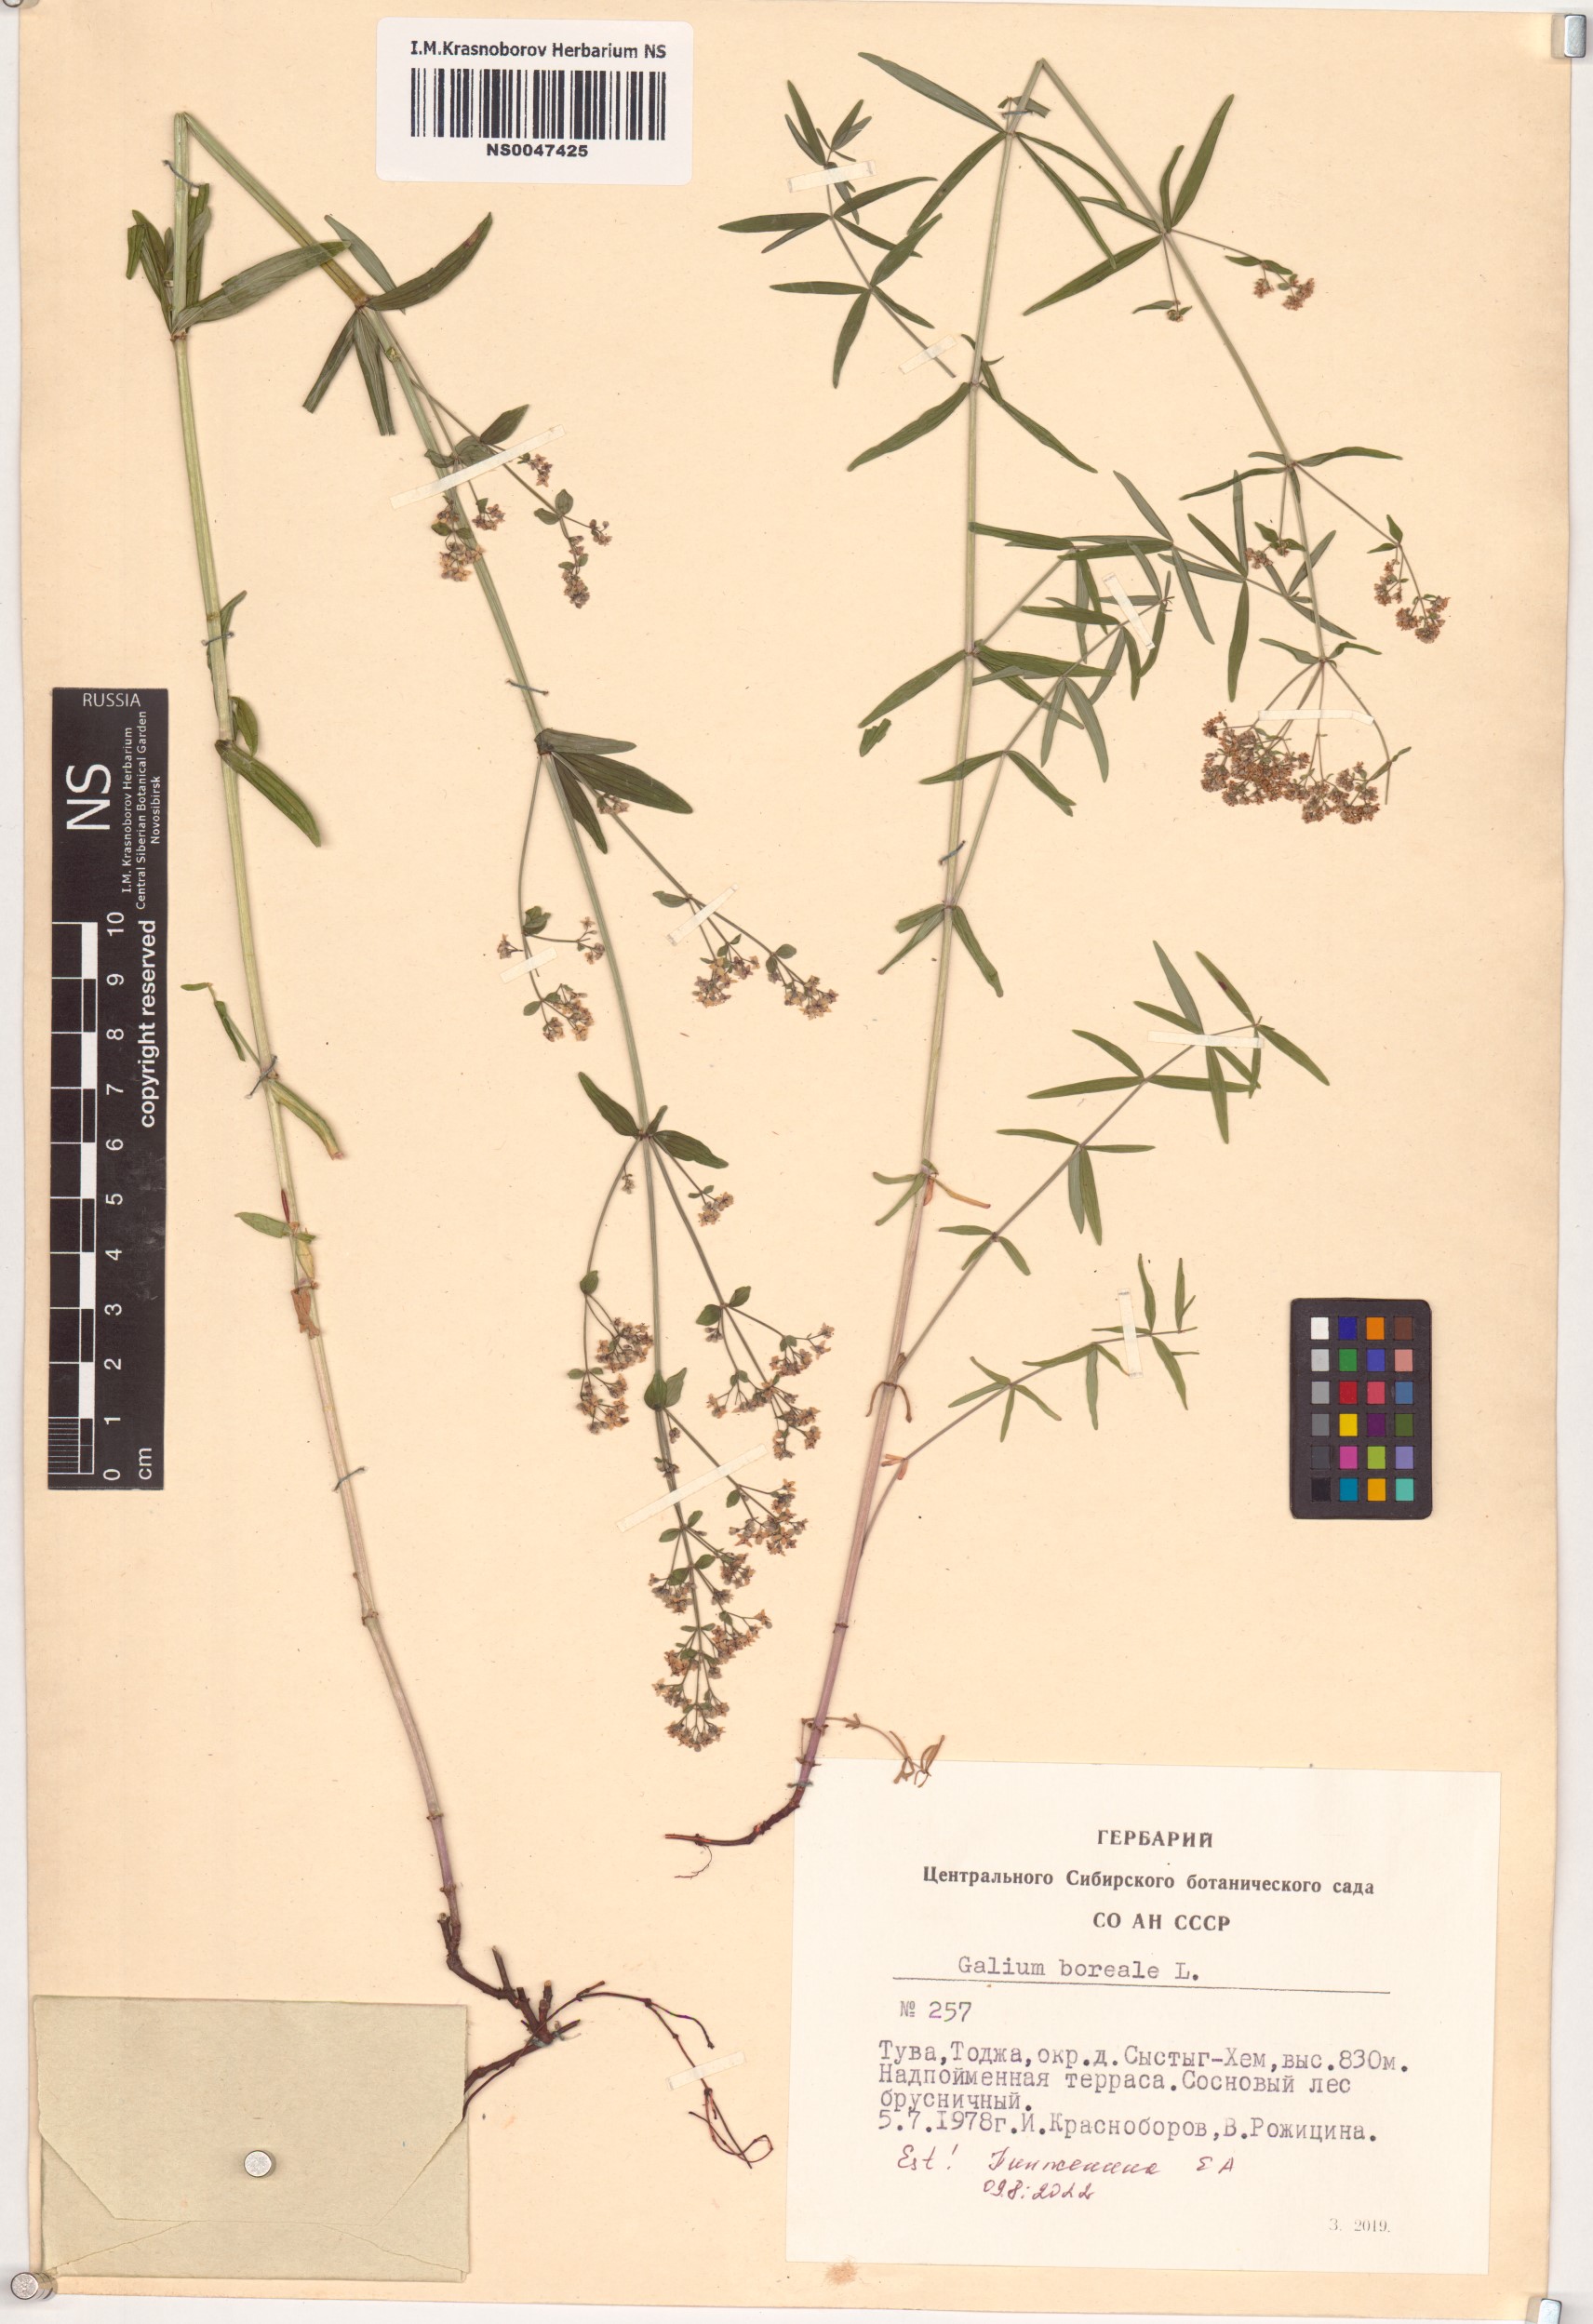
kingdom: Plantae
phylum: Tracheophyta
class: Magnoliopsida
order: Gentianales
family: Rubiaceae
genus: Galium
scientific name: Galium boreale
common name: Northern bedstraw
